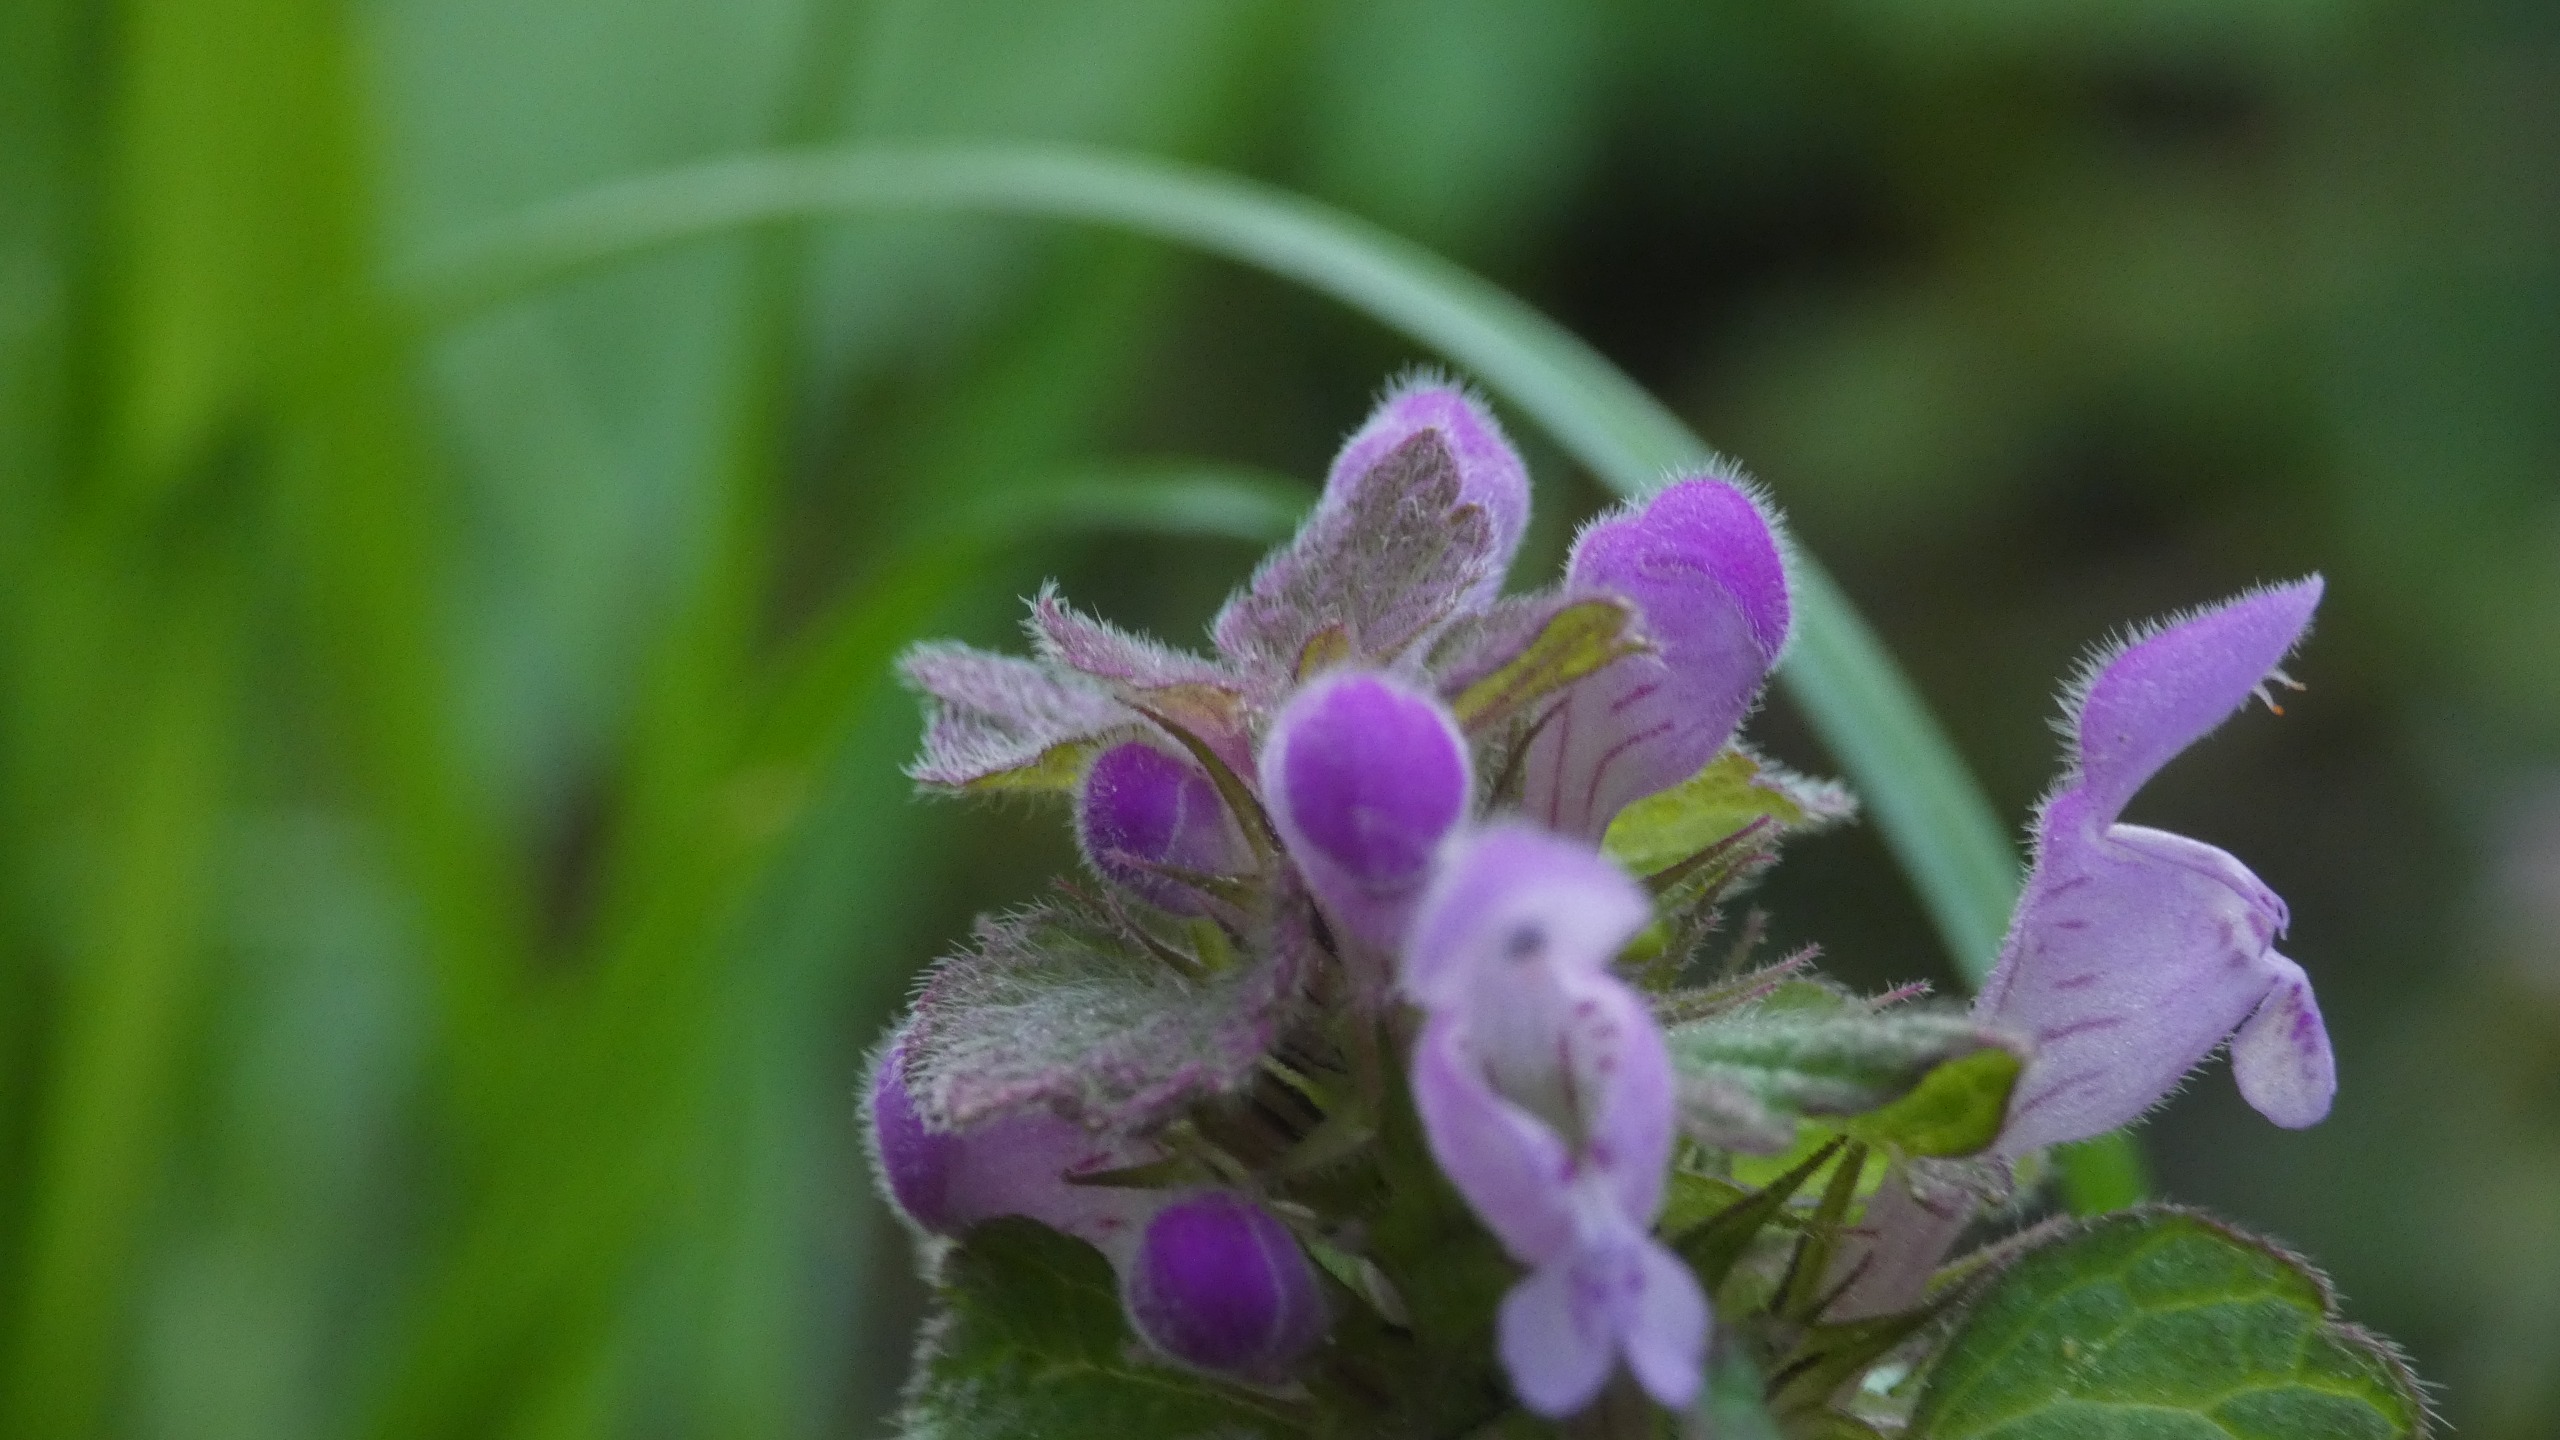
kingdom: Plantae
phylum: Tracheophyta
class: Magnoliopsida
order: Lamiales
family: Lamiaceae
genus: Lamium
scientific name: Lamium purpureum
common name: Rød tvetand
